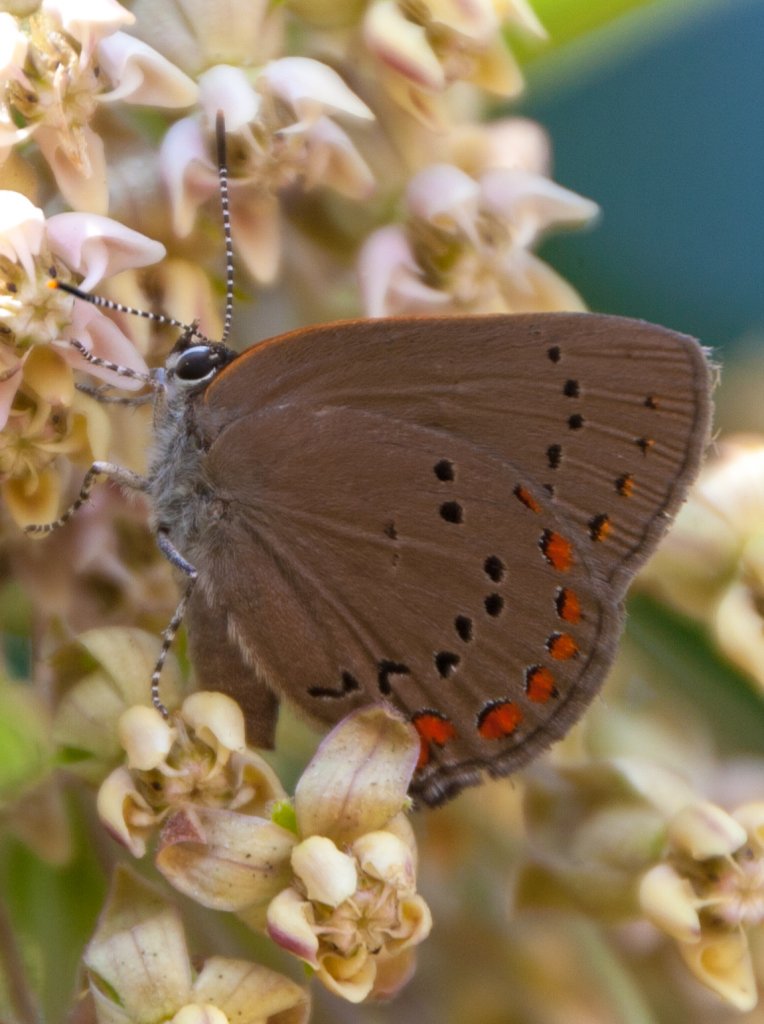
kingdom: Animalia
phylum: Arthropoda
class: Insecta
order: Lepidoptera
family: Lycaenidae
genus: Harkenclenus
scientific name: Harkenclenus titus
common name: Coral Hairstreak
